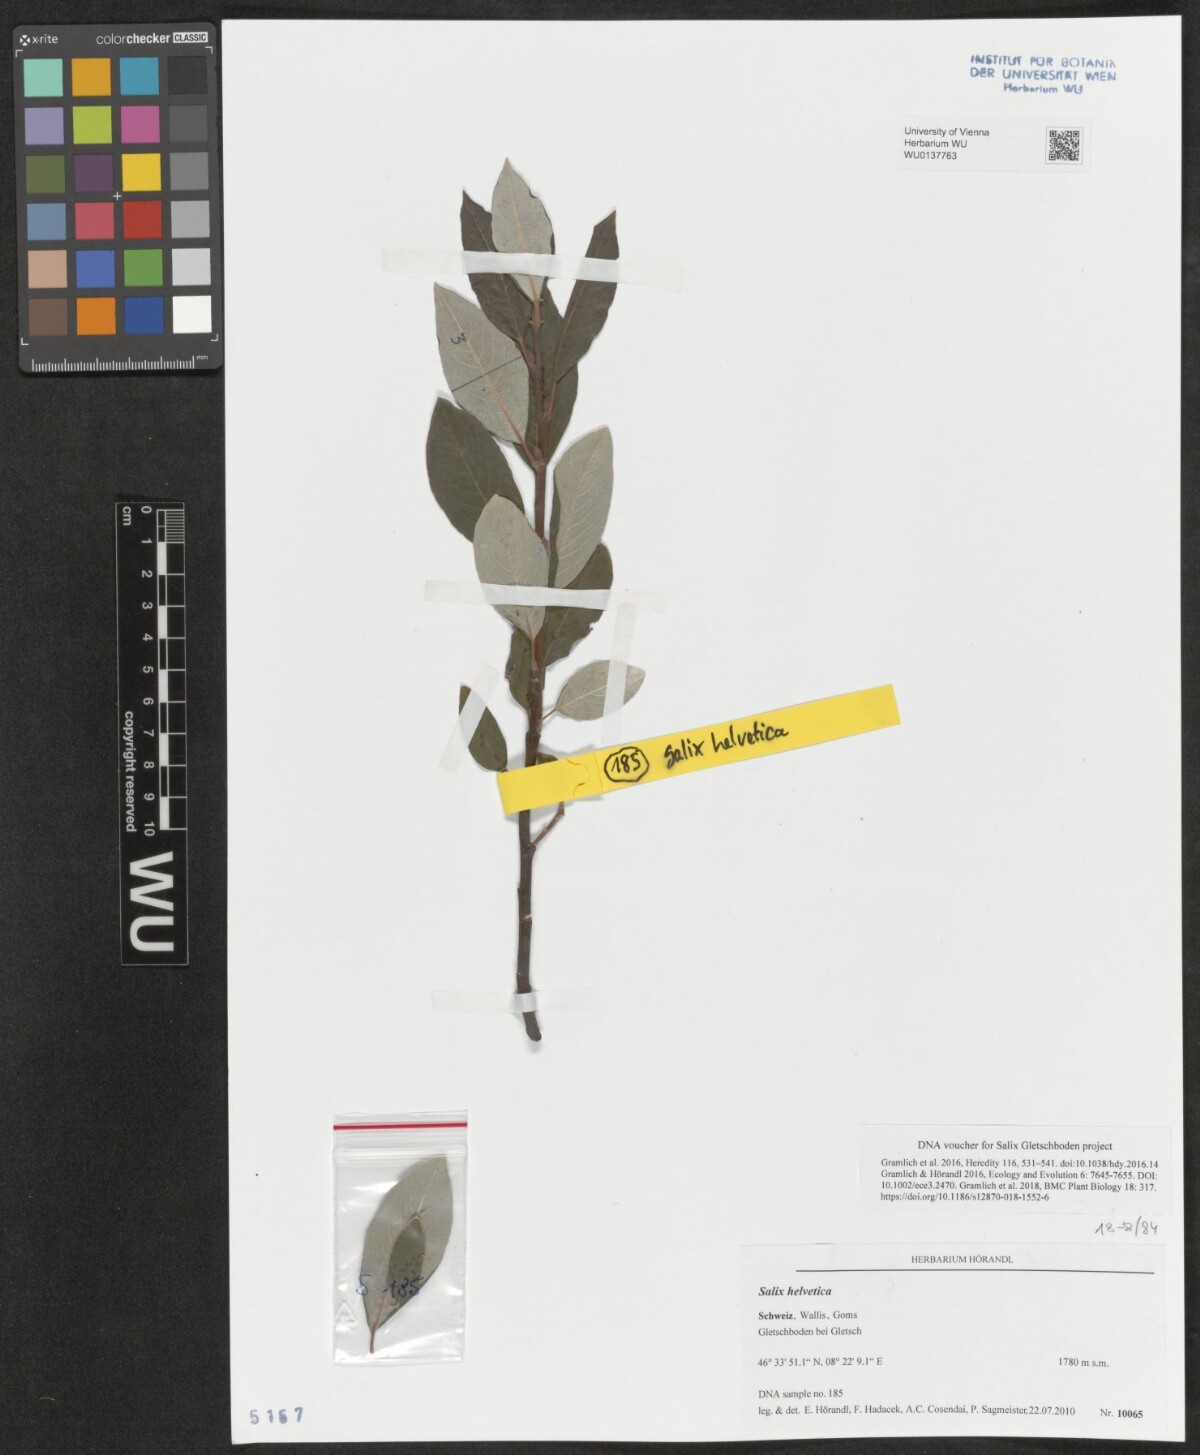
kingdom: Plantae
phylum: Tracheophyta
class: Magnoliopsida
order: Malpighiales
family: Salicaceae
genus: Salix
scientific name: Salix helvetica
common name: Swiss willow
